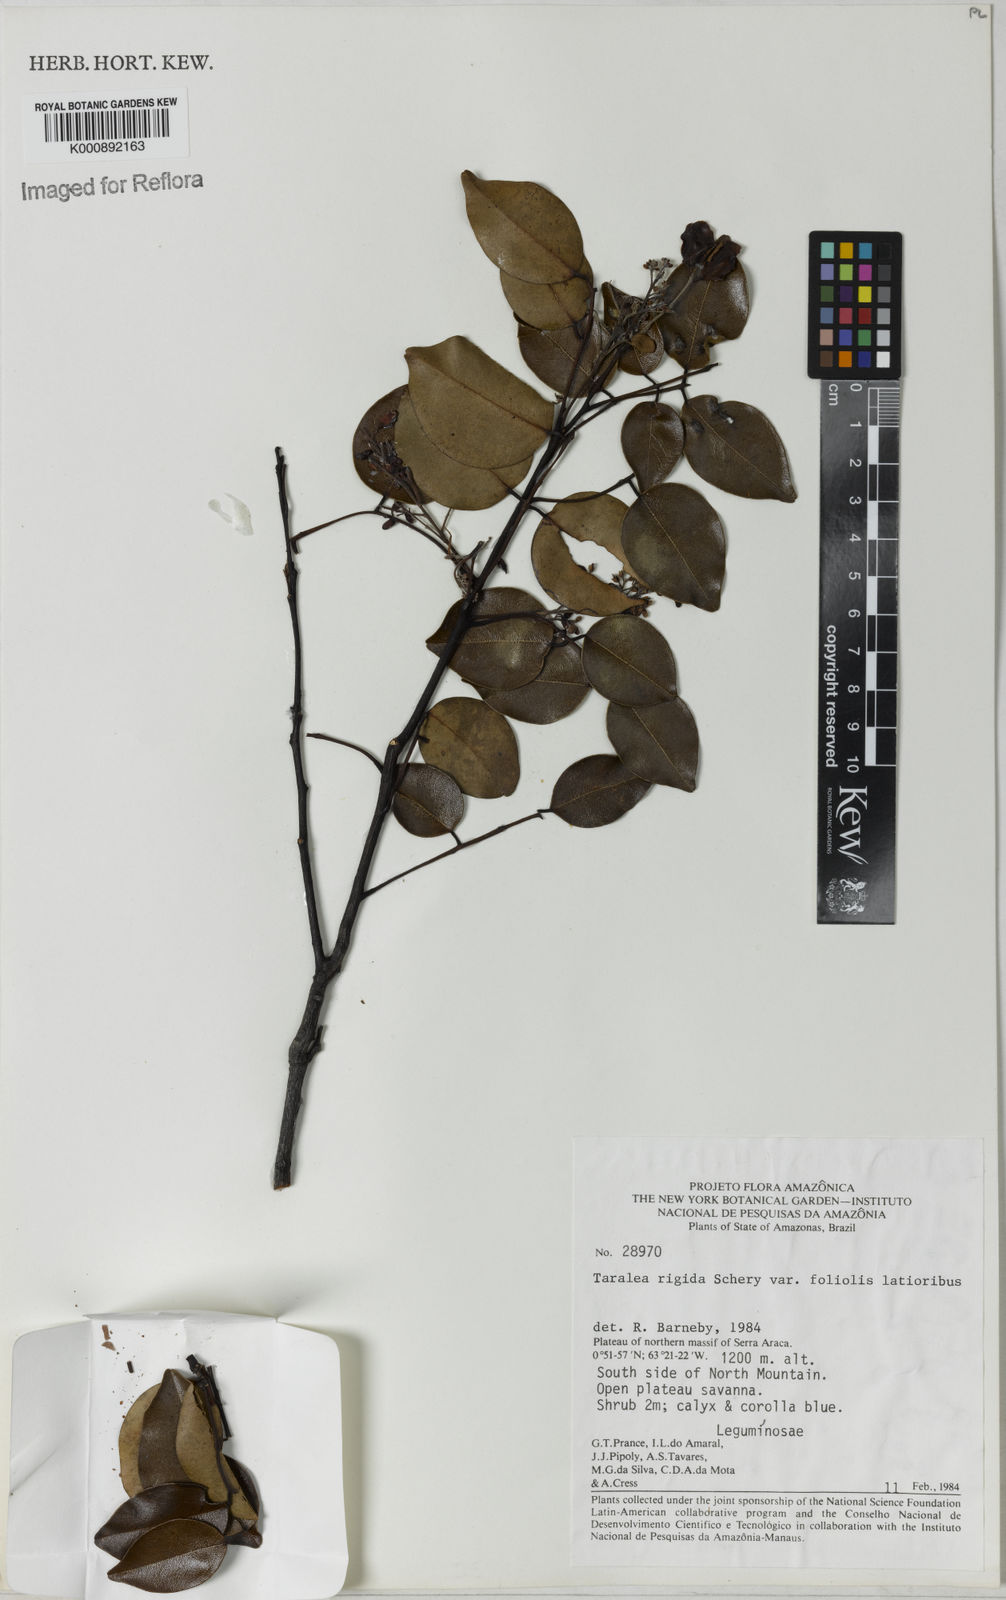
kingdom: Plantae
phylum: Tracheophyta
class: Magnoliopsida
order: Fabales
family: Fabaceae
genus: Taralea
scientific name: Taralea cordata
